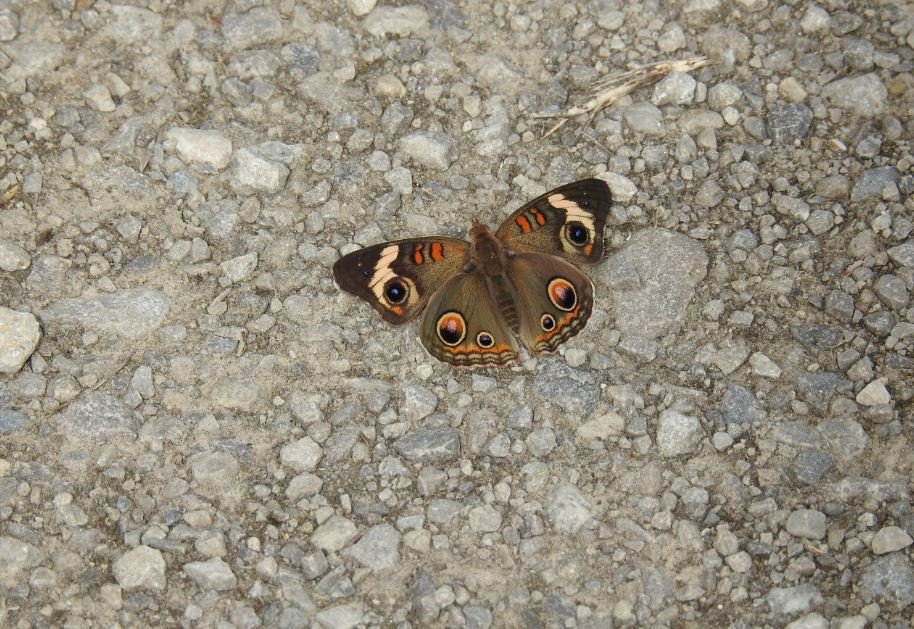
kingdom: Animalia
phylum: Arthropoda
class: Insecta
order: Lepidoptera
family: Nymphalidae
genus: Junonia
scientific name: Junonia coenia
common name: Common Buckeye
